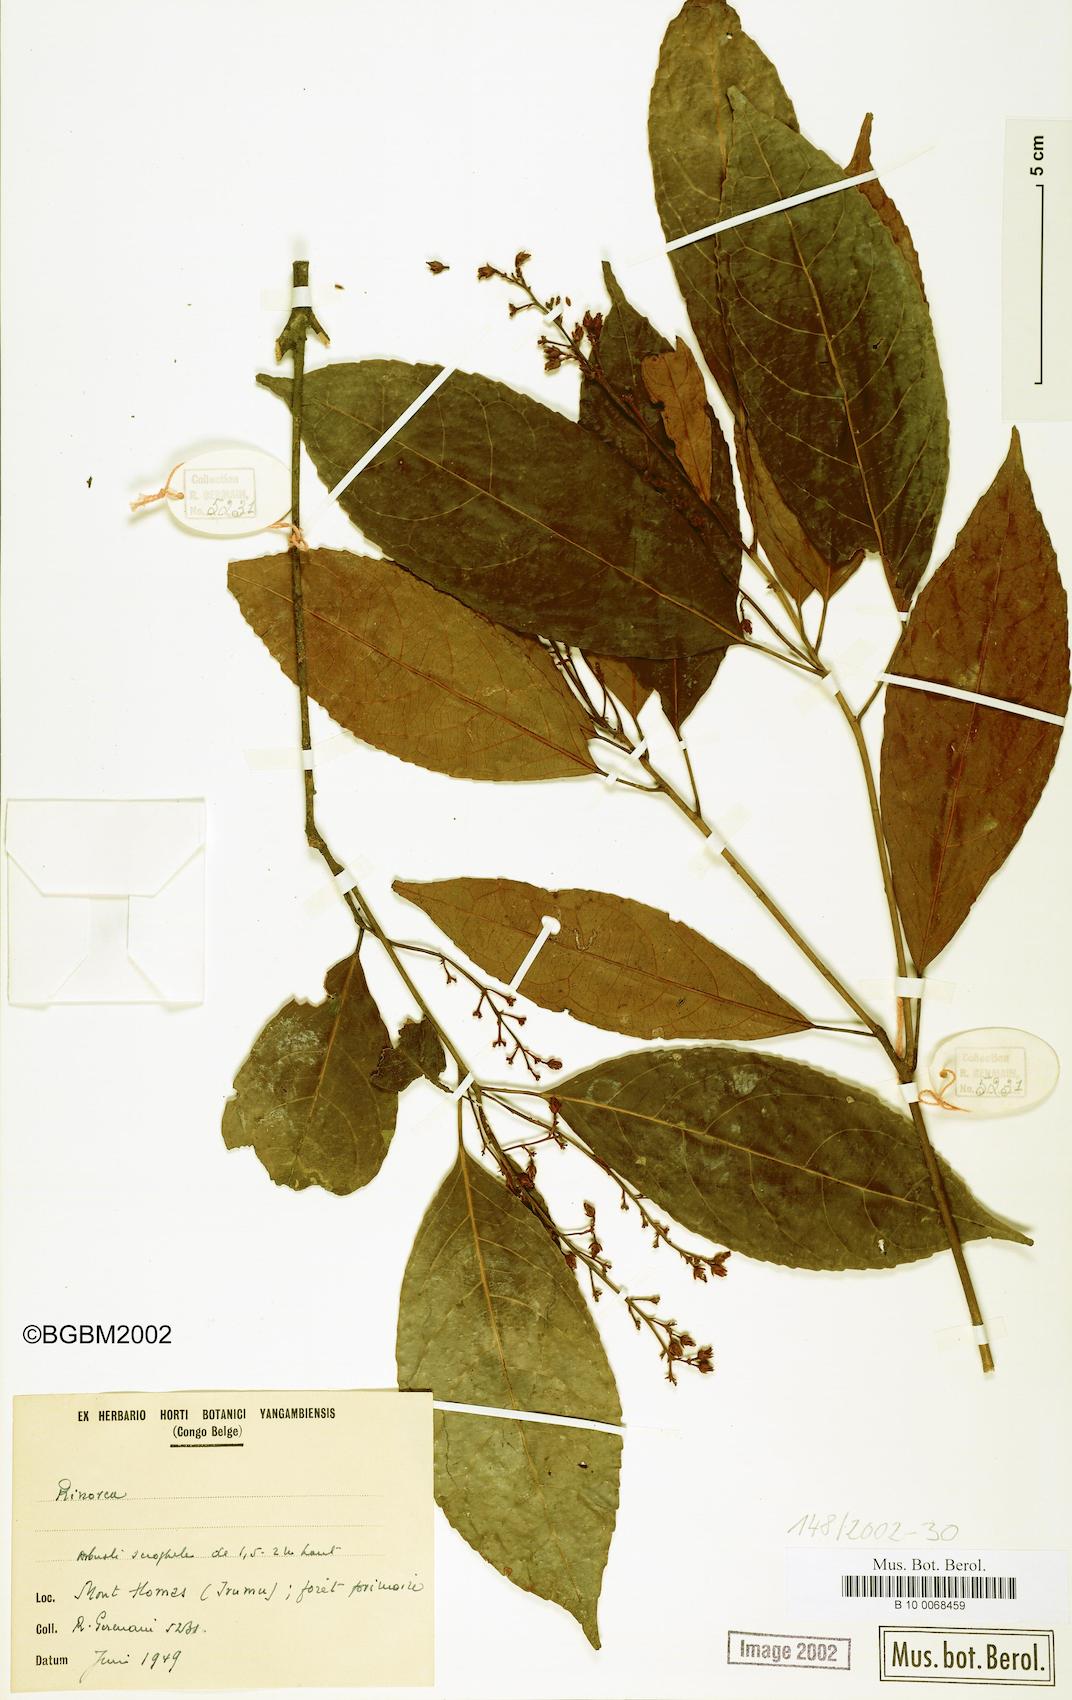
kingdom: Plantae
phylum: Tracheophyta
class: Magnoliopsida
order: Malpighiales
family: Violaceae
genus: Rinorea
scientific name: Rinorea
